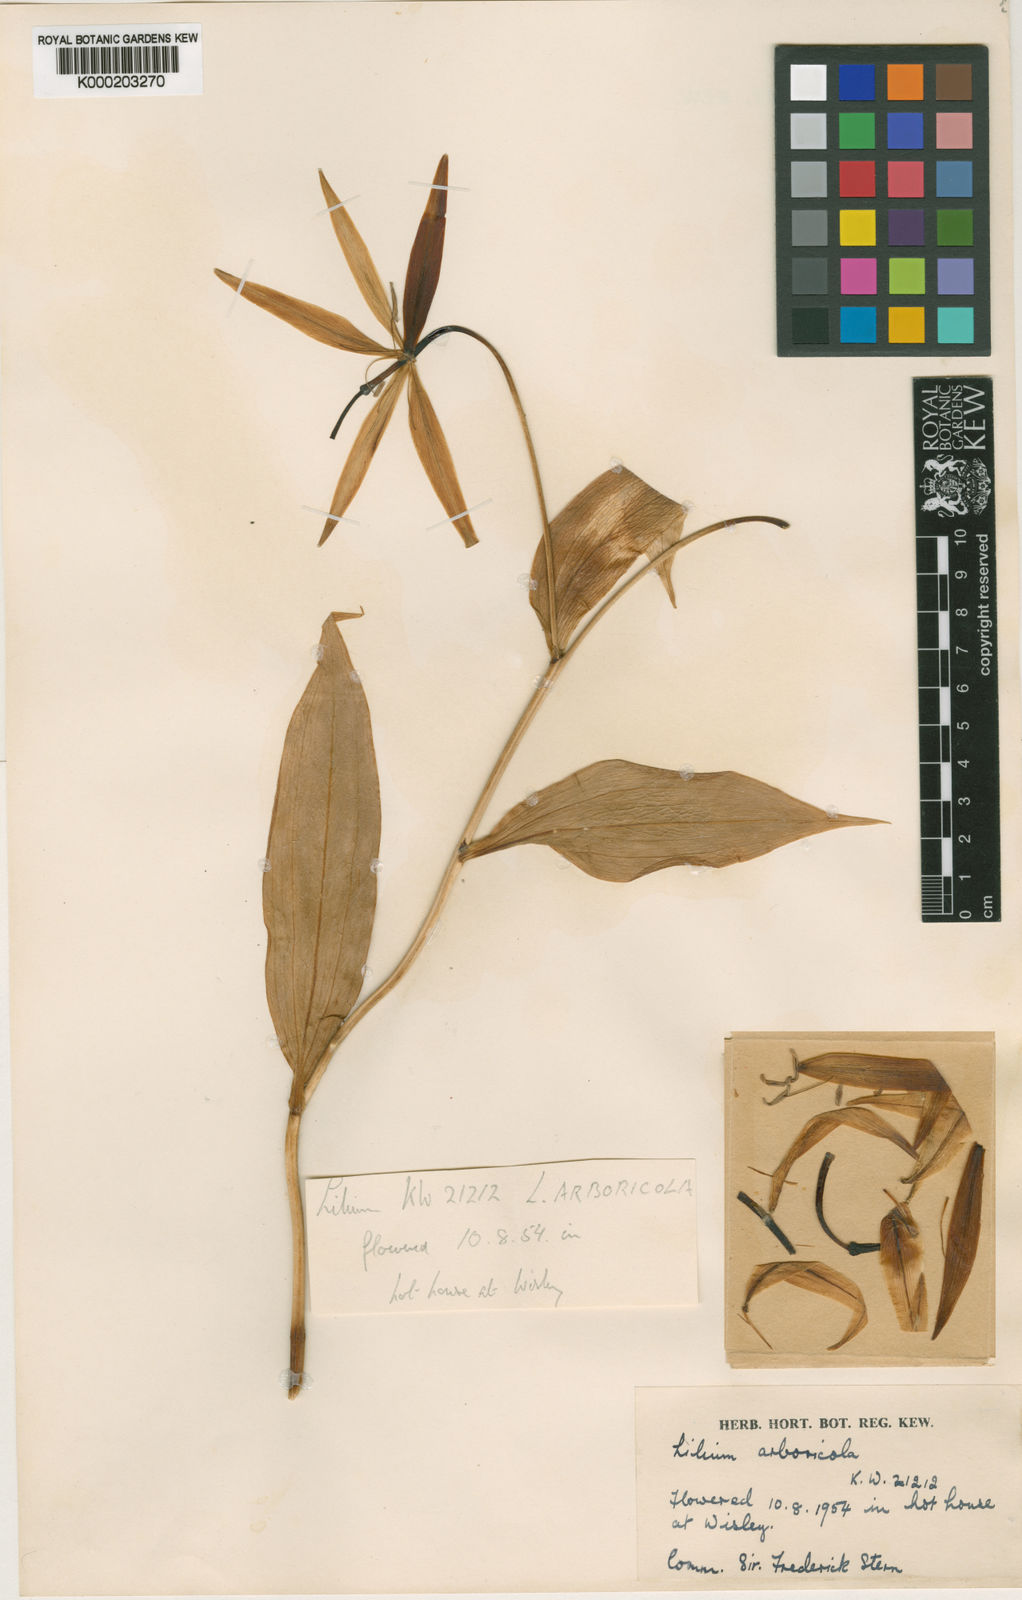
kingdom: Plantae
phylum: Tracheophyta
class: Liliopsida
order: Liliales
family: Liliaceae
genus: Lilium
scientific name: Lilium arboricola
